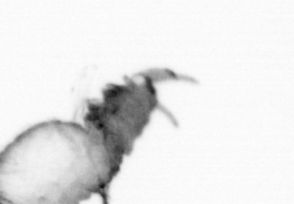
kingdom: Animalia
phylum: Annelida
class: Polychaeta
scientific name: Polychaeta
